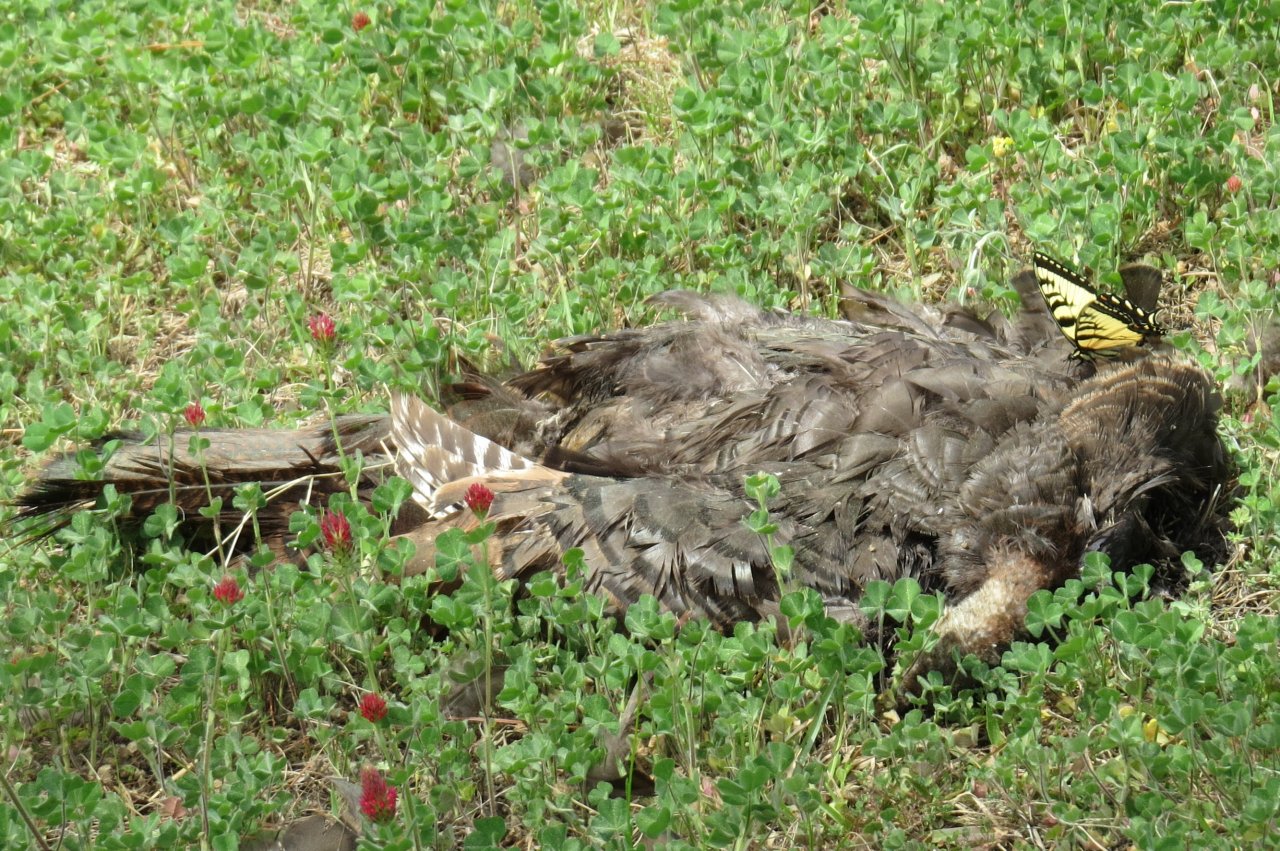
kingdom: Animalia
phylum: Arthropoda
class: Insecta
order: Lepidoptera
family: Papilionidae
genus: Pterourus
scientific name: Pterourus glaucus
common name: Eastern Tiger Swallowtail
